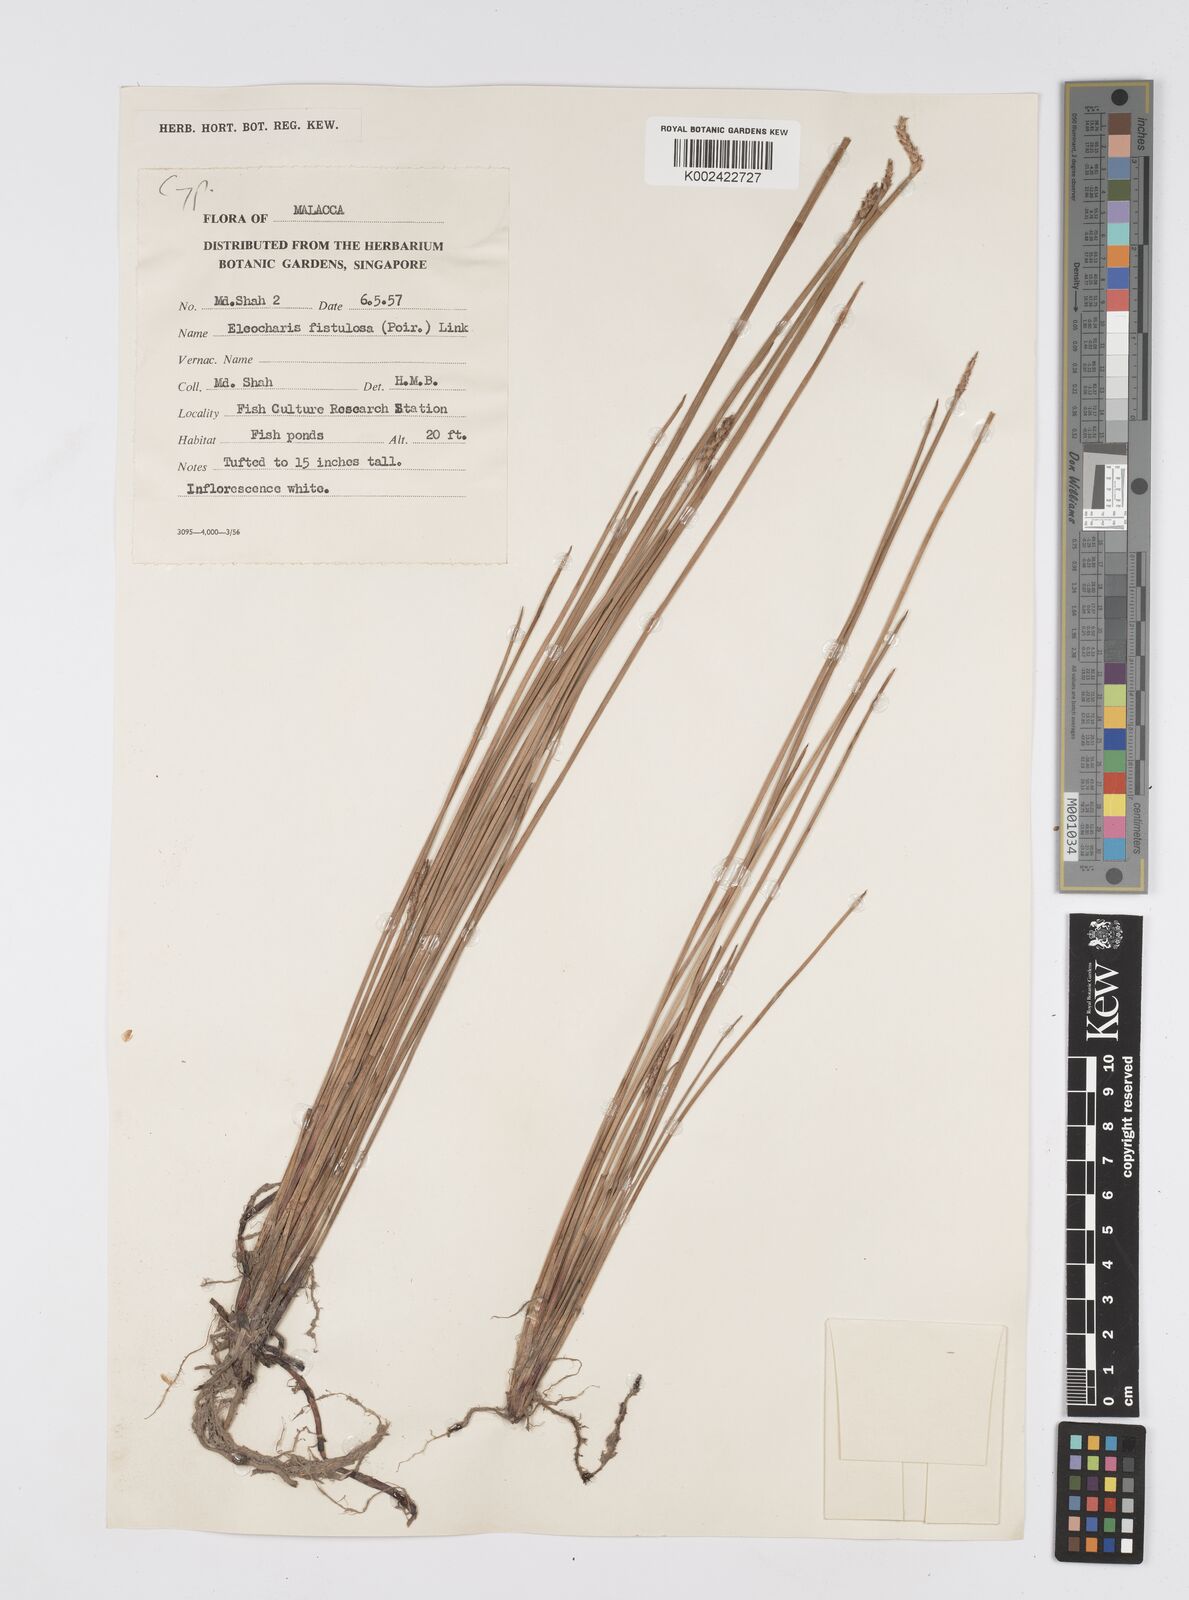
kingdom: Plantae
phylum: Tracheophyta
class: Liliopsida
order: Poales
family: Cyperaceae
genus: Eleocharis
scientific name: Eleocharis acutangula
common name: Acute spikerush
